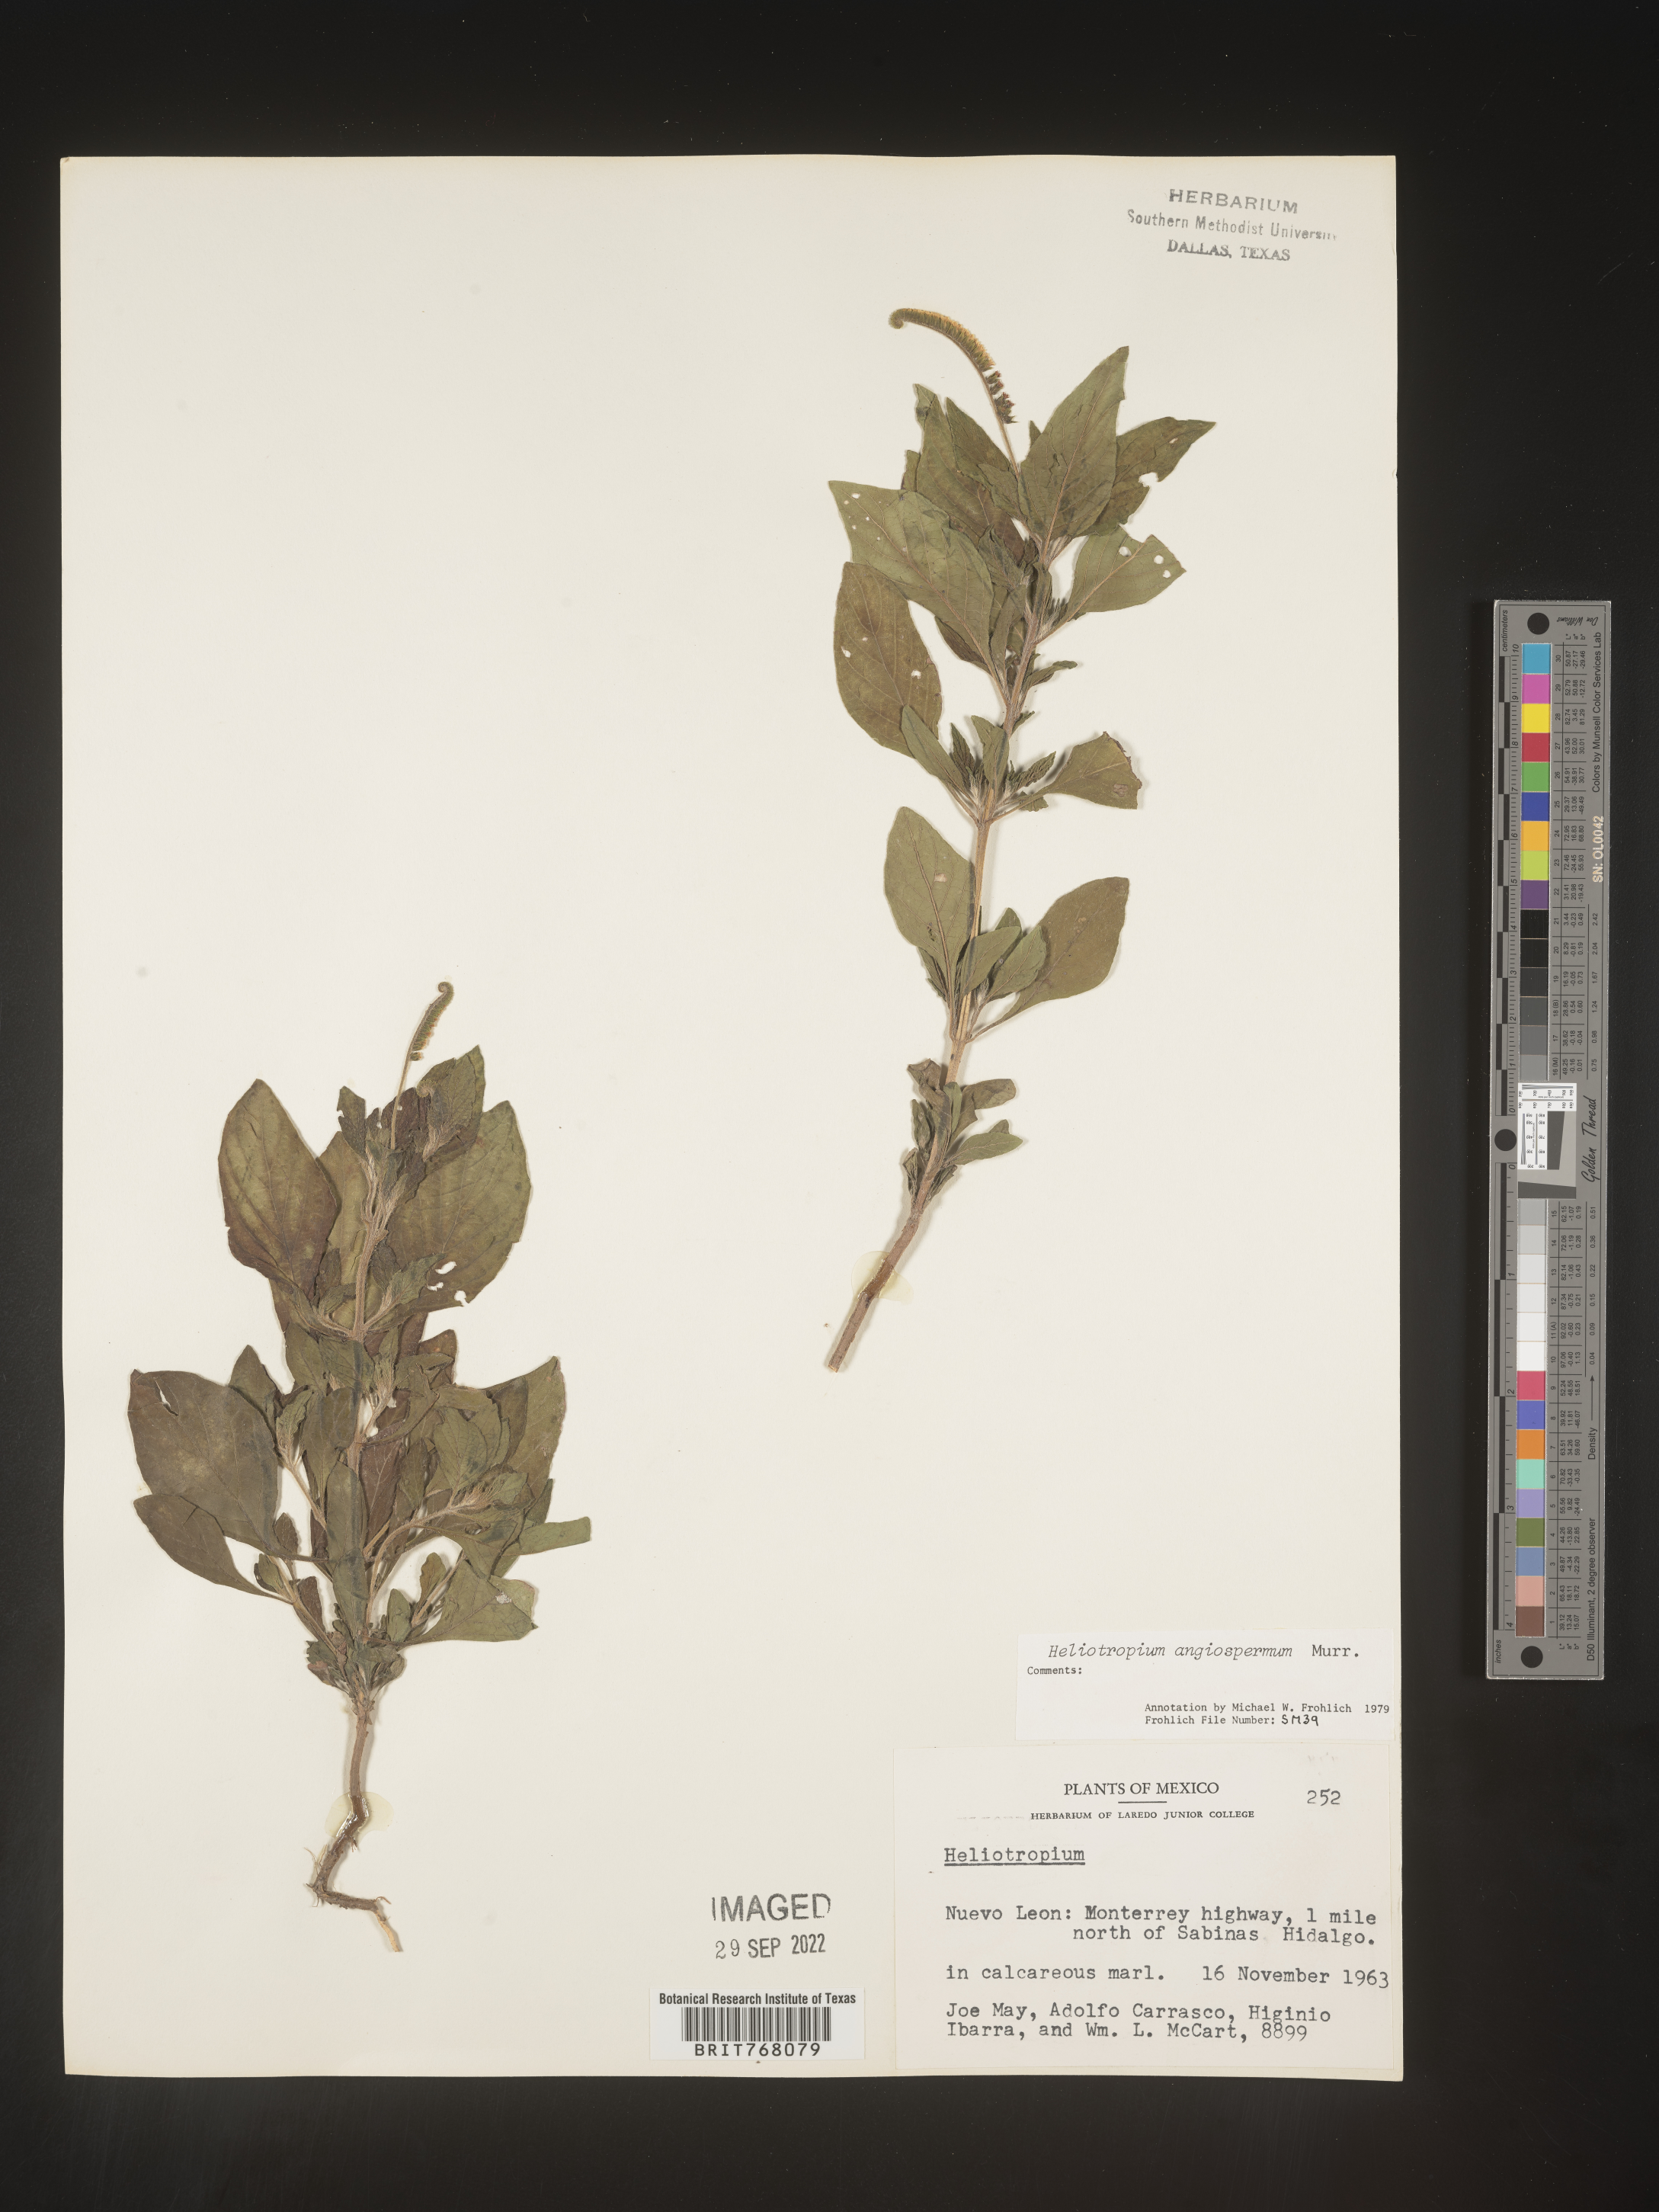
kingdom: Plantae
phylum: Tracheophyta
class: Magnoliopsida
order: Boraginales
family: Heliotropiaceae
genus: Heliotropium
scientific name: Heliotropium
